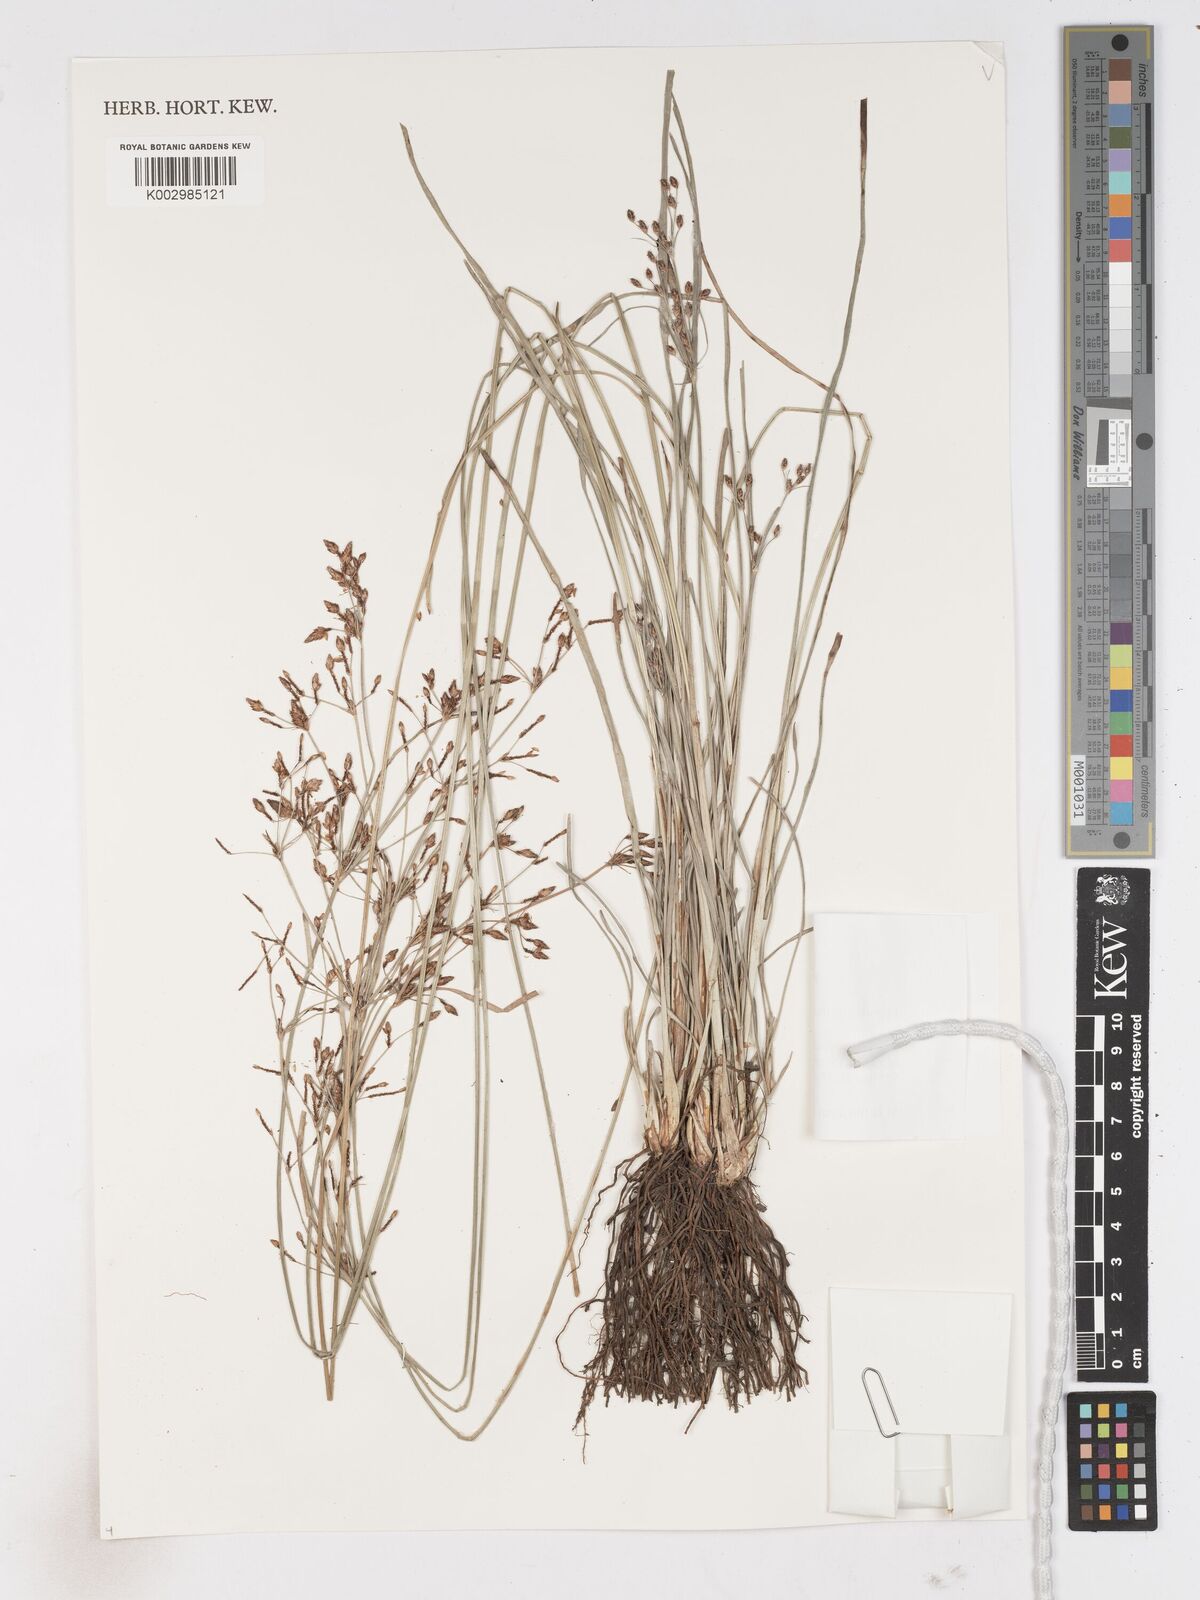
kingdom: Plantae
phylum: Tracheophyta
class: Liliopsida
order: Poales
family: Cyperaceae
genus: Fimbristylis
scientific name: Fimbristylis dichotoma
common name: Forked fimbry
